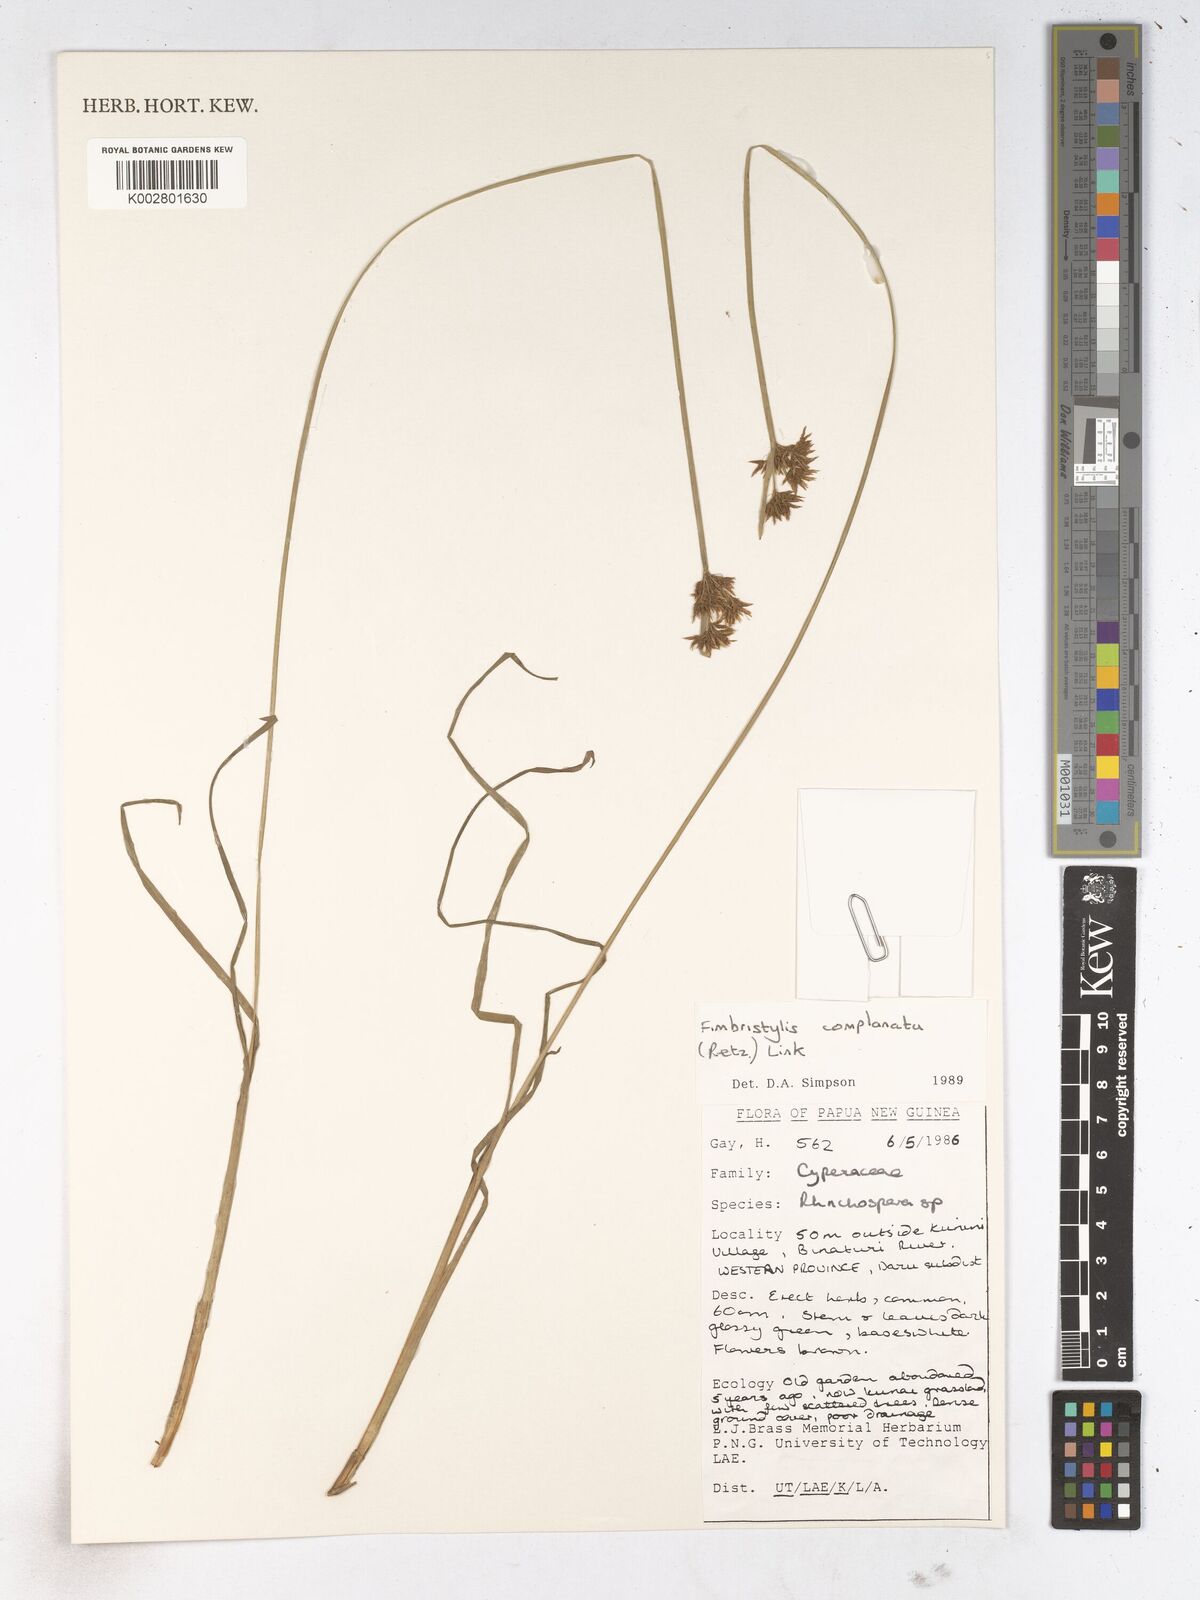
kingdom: Plantae
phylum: Tracheophyta
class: Liliopsida
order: Poales
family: Cyperaceae
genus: Fimbristylis
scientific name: Fimbristylis complanata
